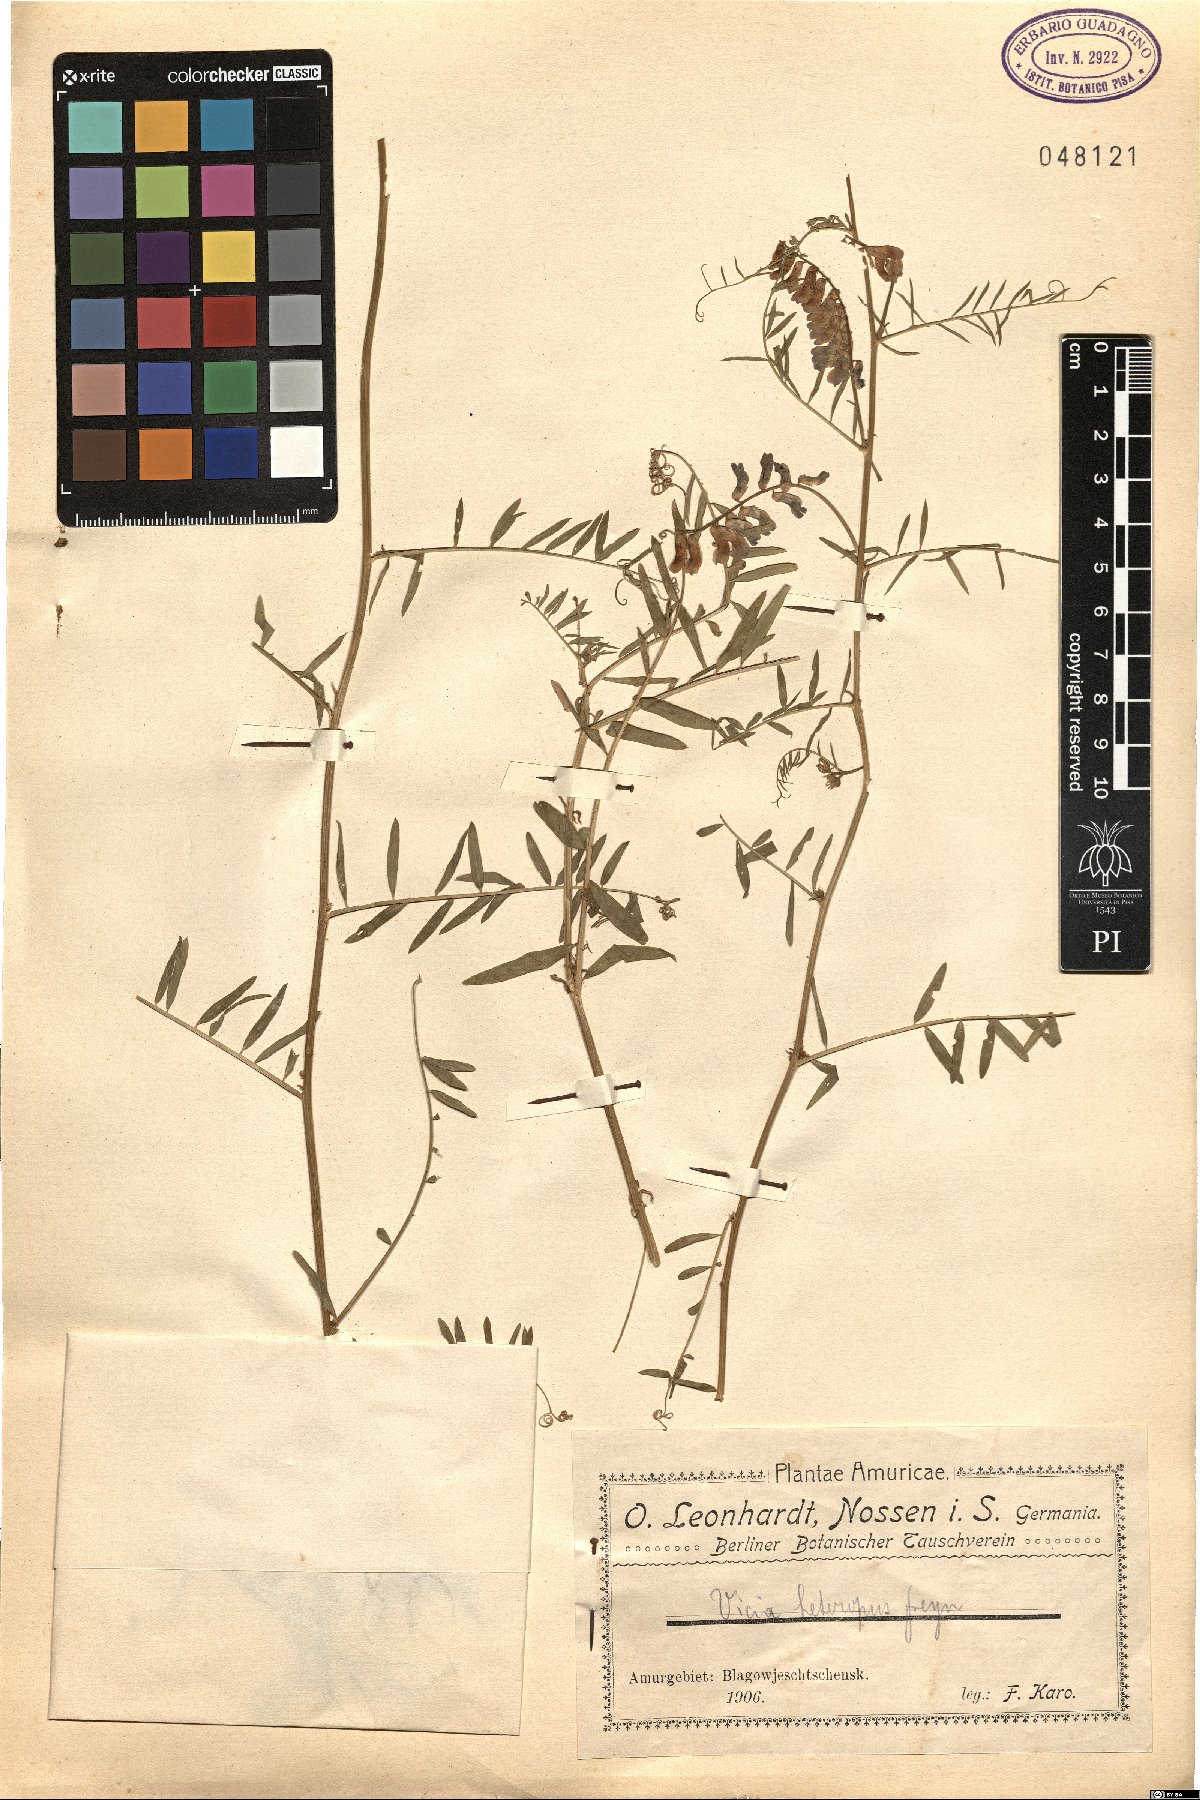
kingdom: Plantae
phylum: Tracheophyta
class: Magnoliopsida
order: Fabales
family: Fabaceae
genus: Vicia
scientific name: Vicia cracca
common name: Bird vetch
